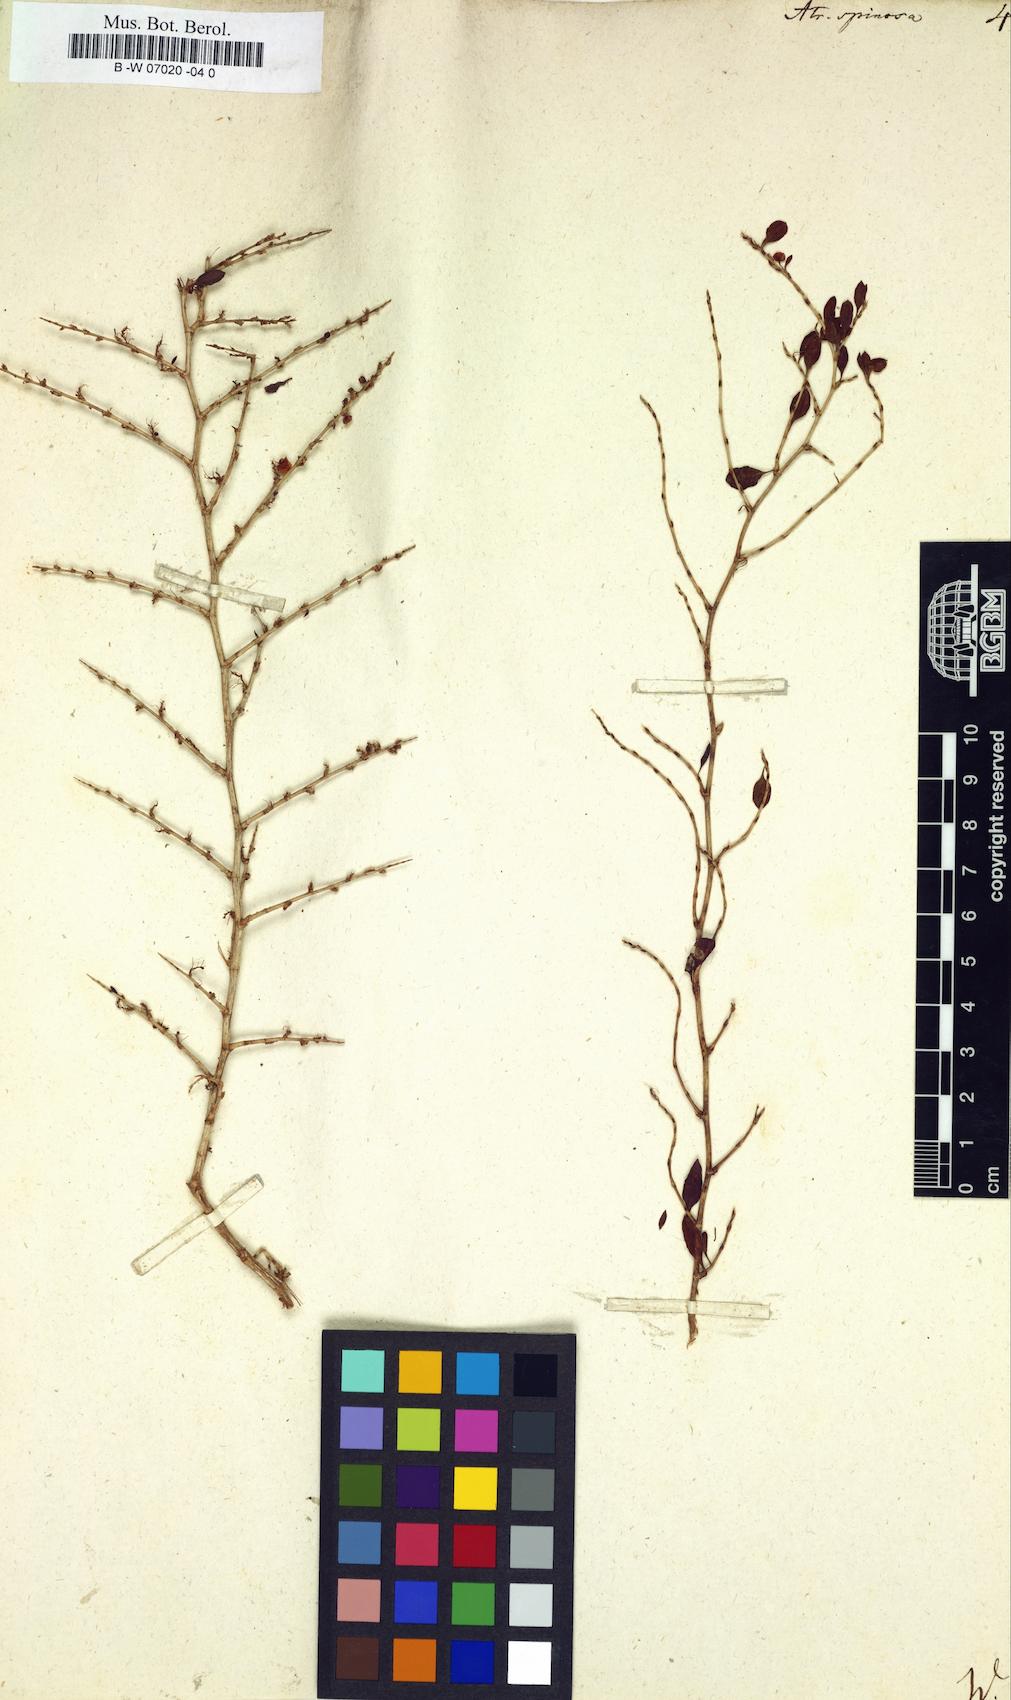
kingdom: Plantae
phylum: Tracheophyta
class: Magnoliopsida
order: Caryophyllales
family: Polygonaceae
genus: Atraphaxis
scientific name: Atraphaxis spinosa
